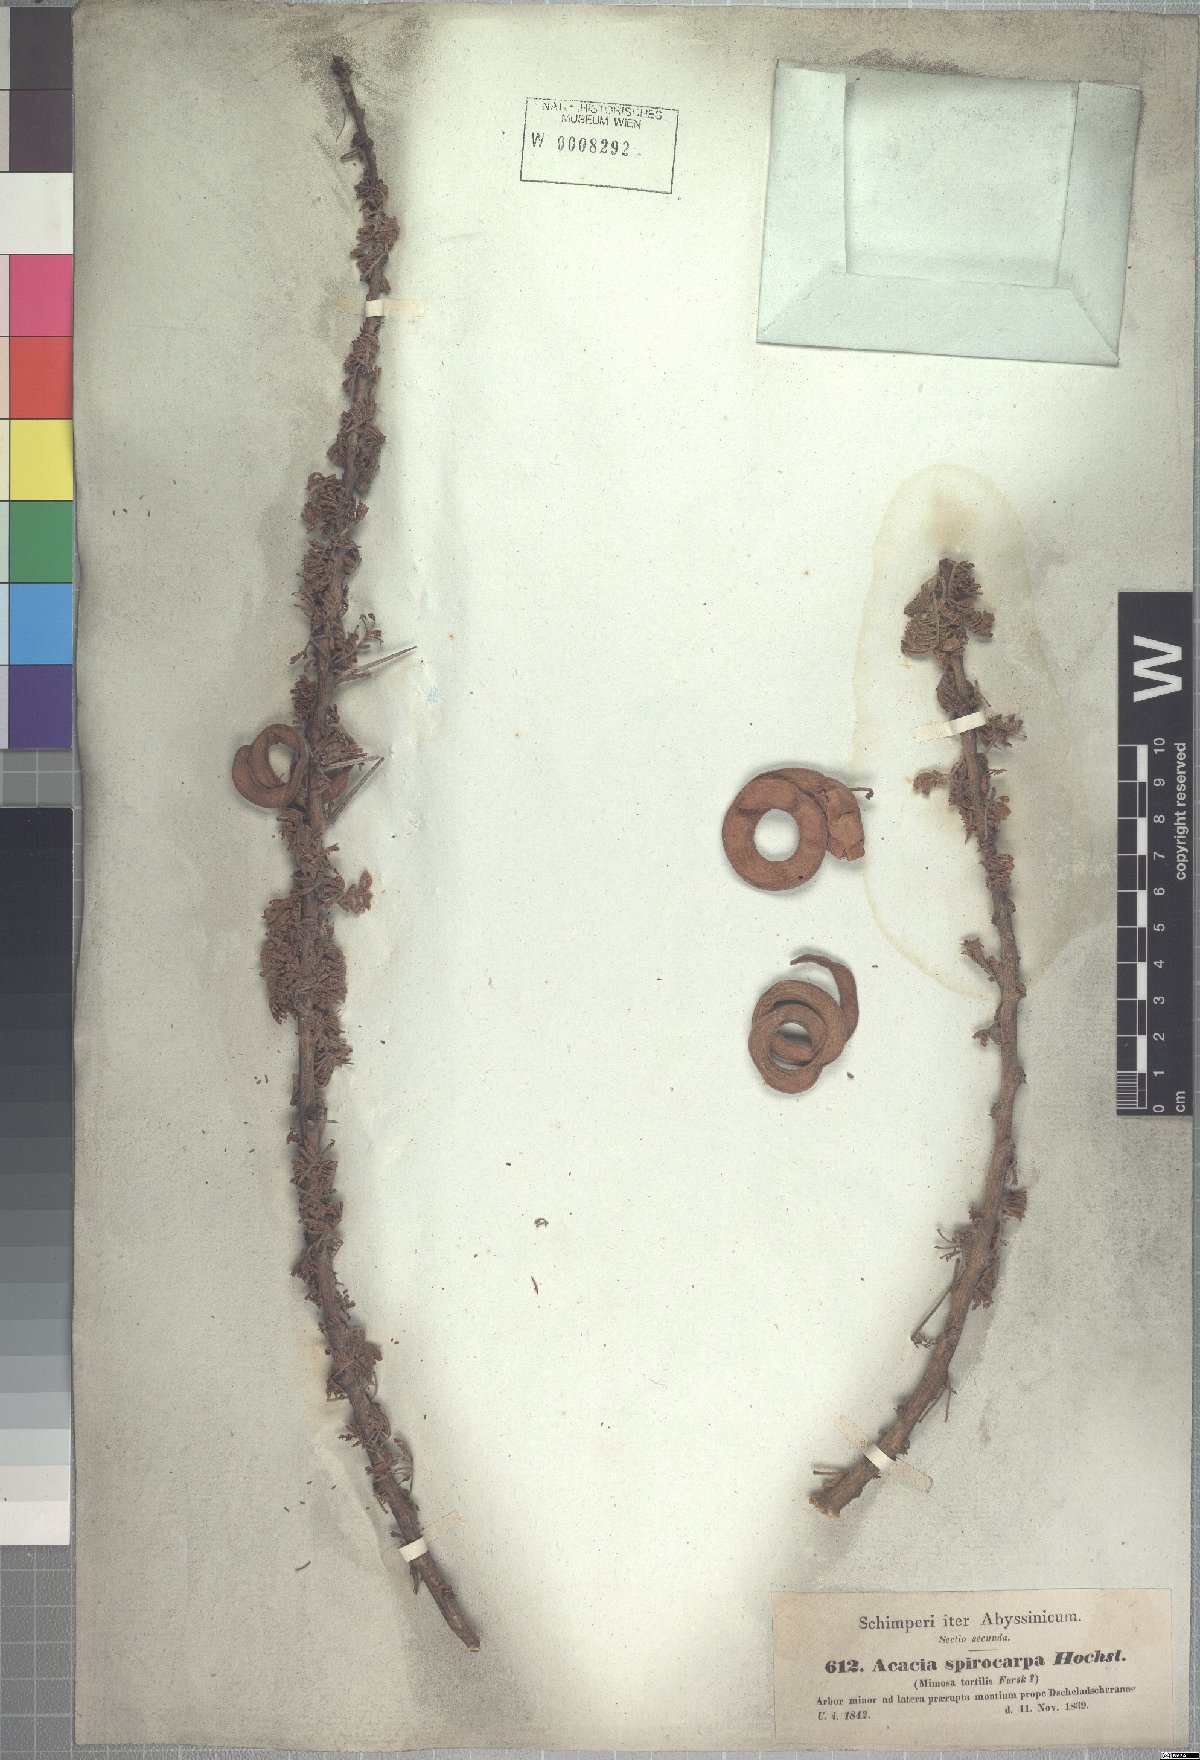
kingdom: Plantae
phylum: Tracheophyta
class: Magnoliopsida
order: Fabales
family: Fabaceae
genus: Vachellia
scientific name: Vachellia tortilis
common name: Umbrella thorn acacia
